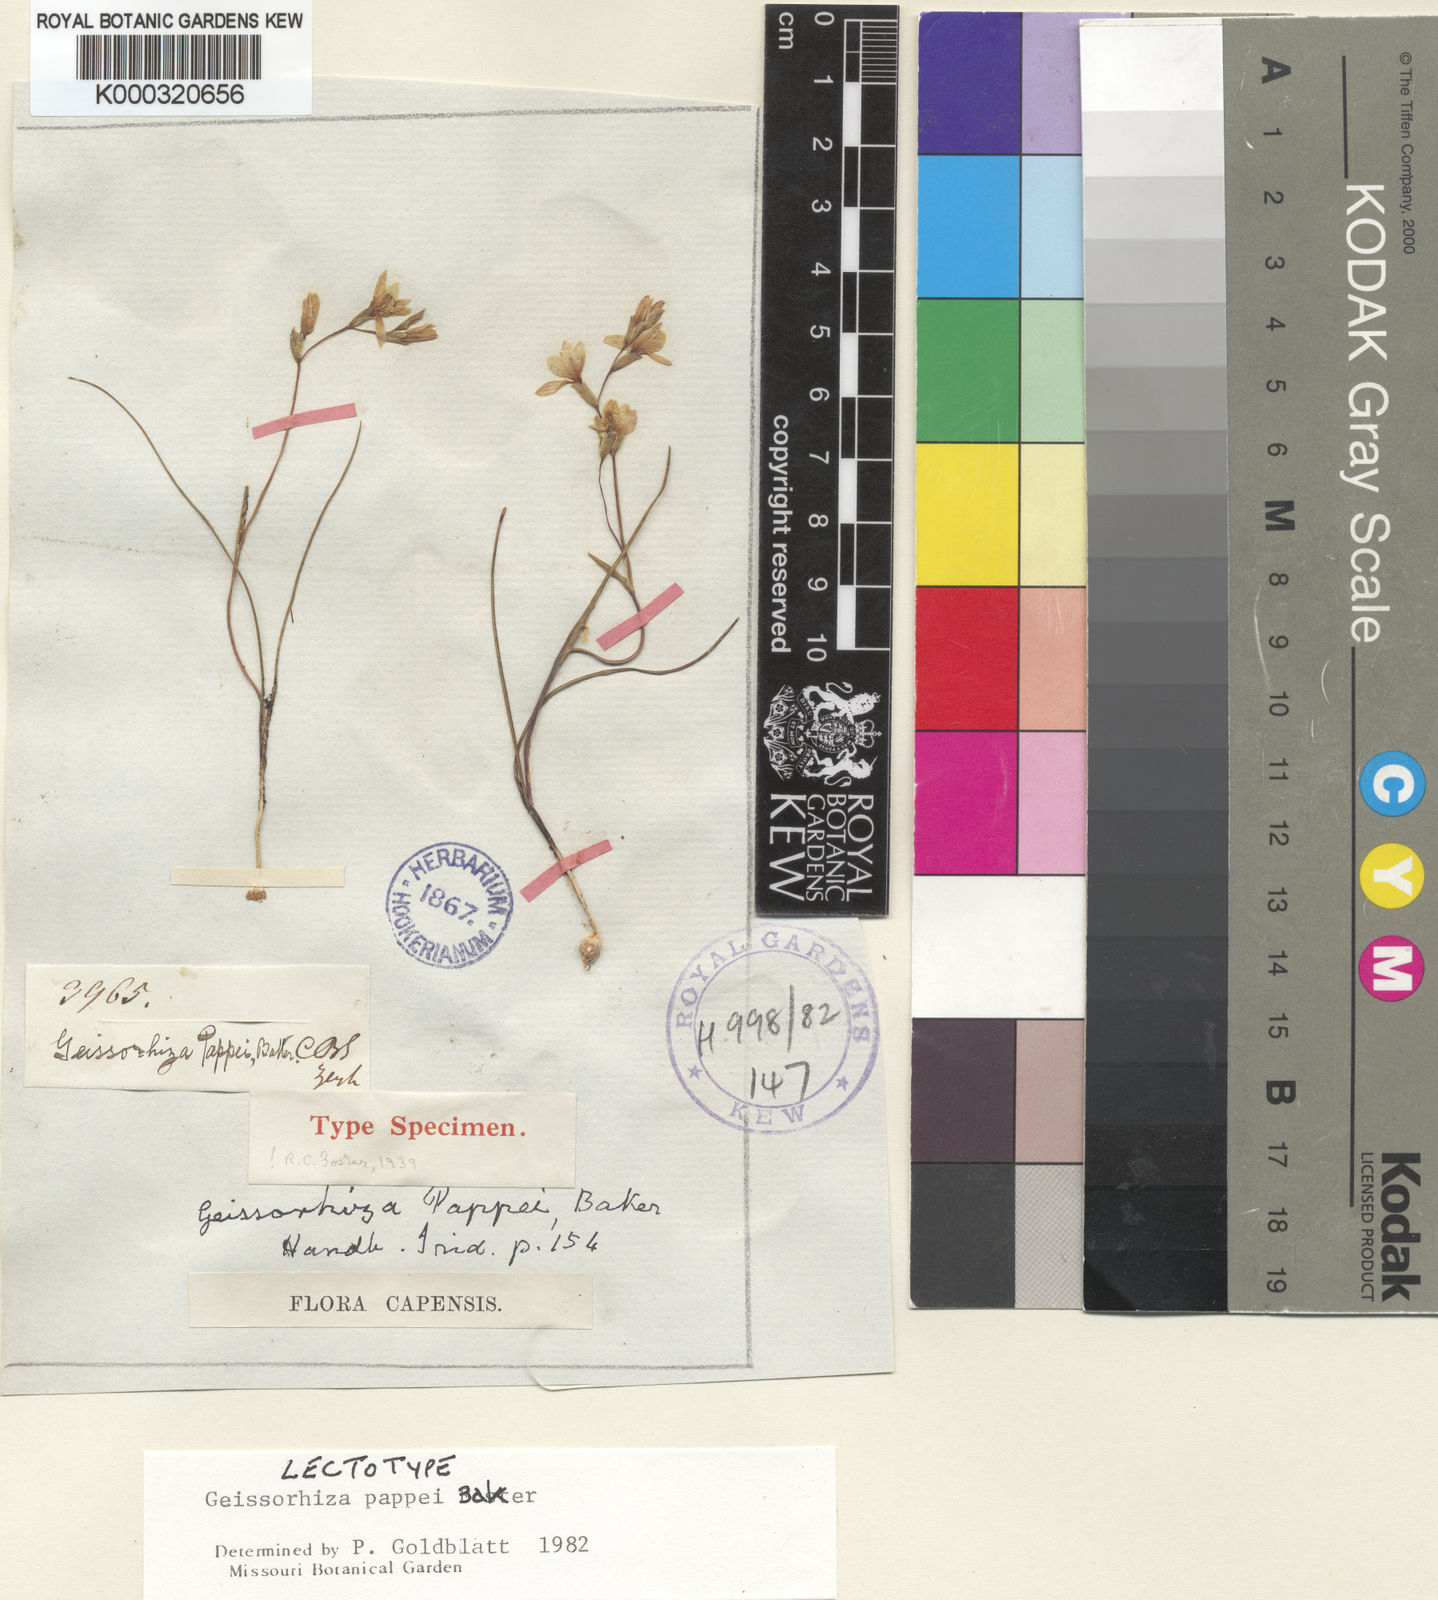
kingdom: Plantae
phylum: Tracheophyta
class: Liliopsida
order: Asparagales
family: Iridaceae
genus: Geissorhiza
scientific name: Geissorhiza pappei
